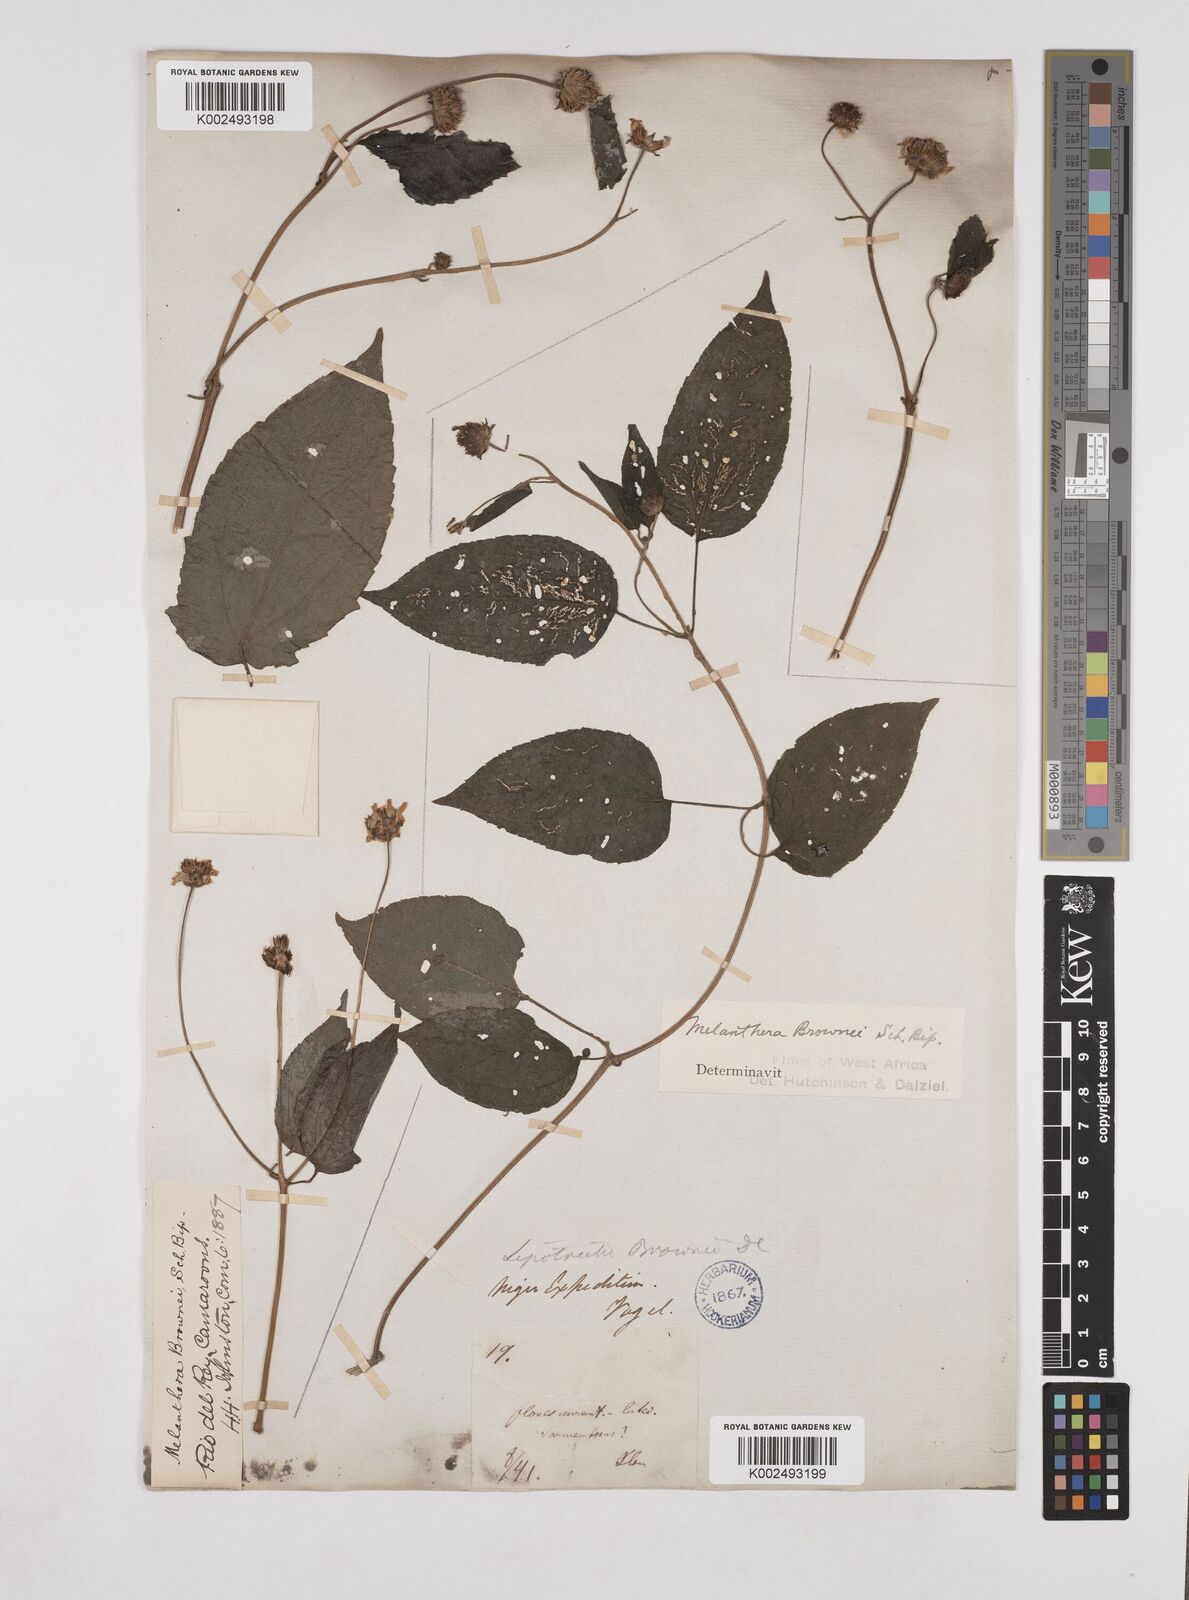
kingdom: Plantae
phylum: Tracheophyta
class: Magnoliopsida
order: Asterales
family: Asteraceae
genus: Lipotriche
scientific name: Lipotriche scandens
